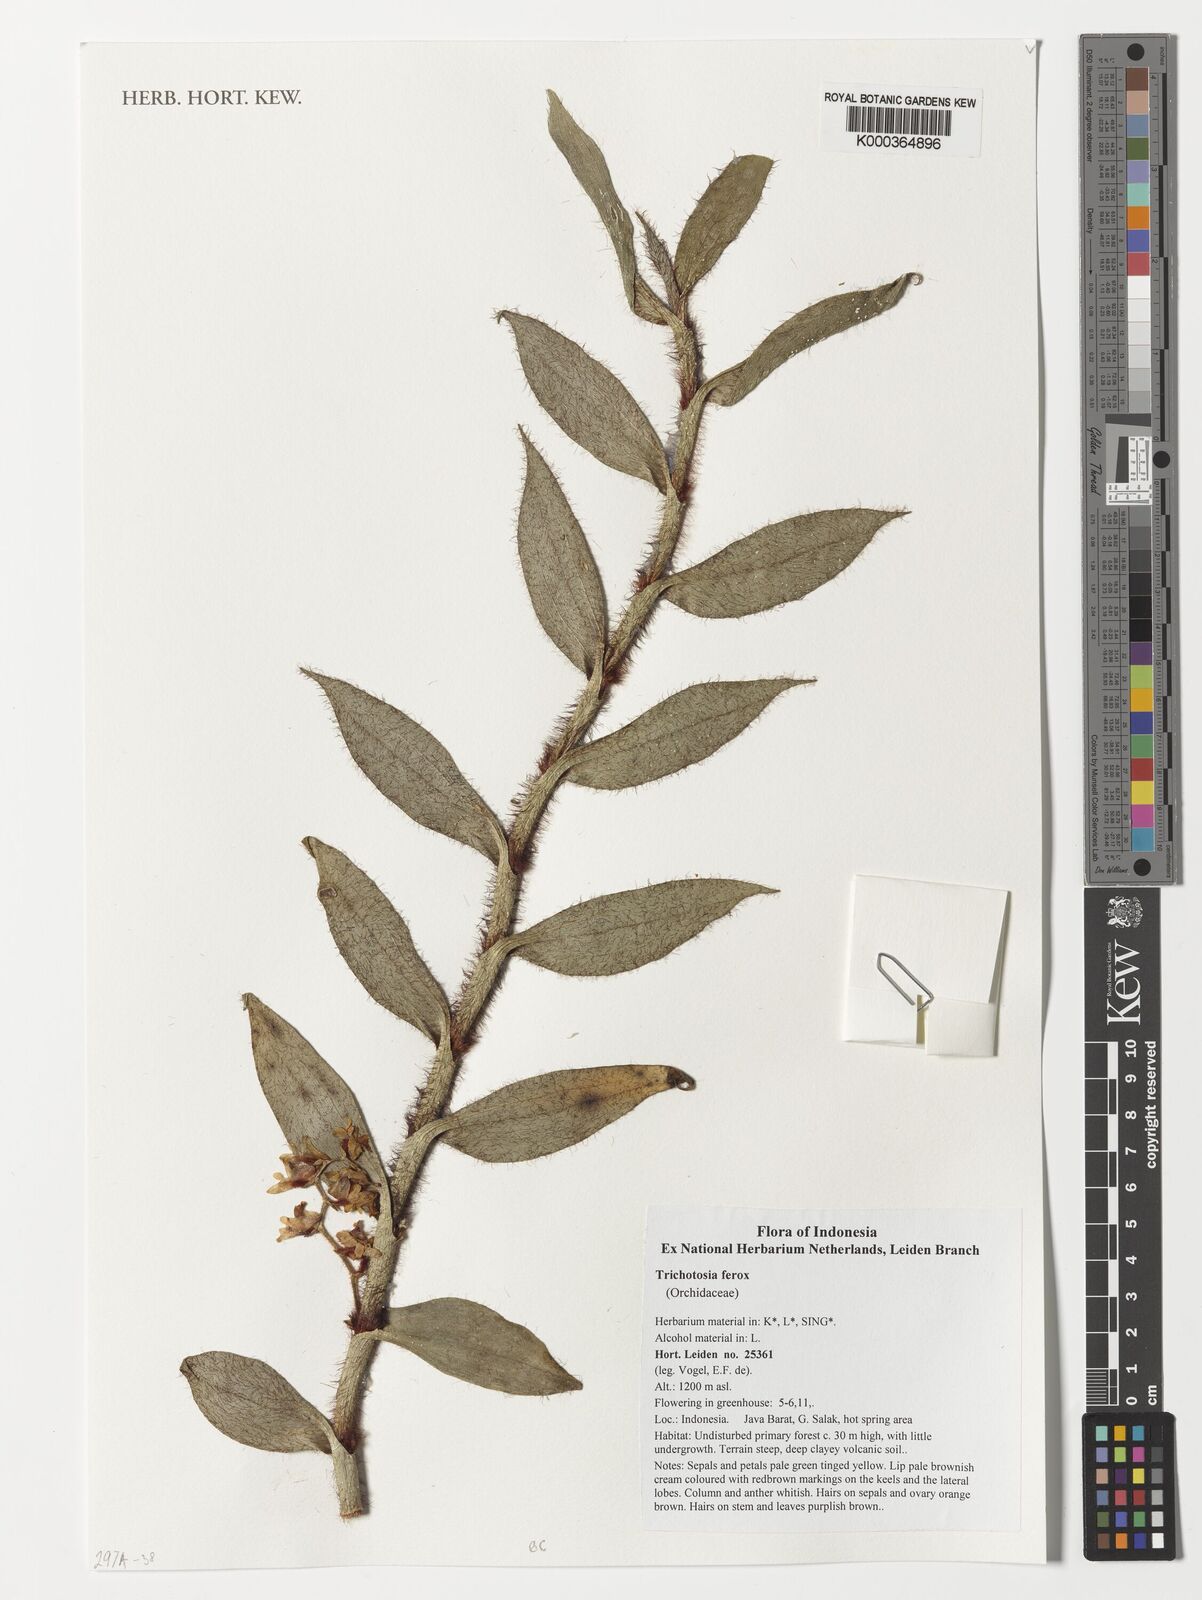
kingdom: Plantae
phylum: Tracheophyta
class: Liliopsida
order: Asparagales
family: Orchidaceae
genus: Trichotosia
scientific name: Trichotosia ferox
